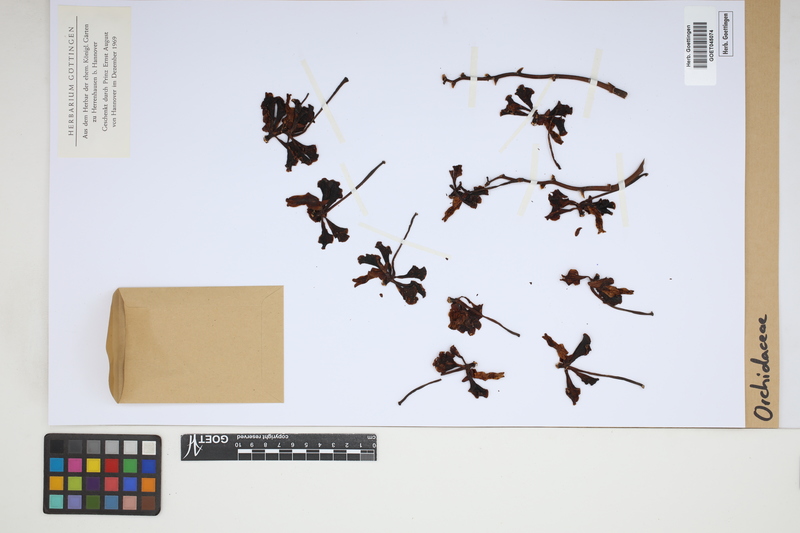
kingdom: Plantae
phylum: Tracheophyta
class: Liliopsida
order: Asparagales
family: Orchidaceae
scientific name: Orchidaceae
